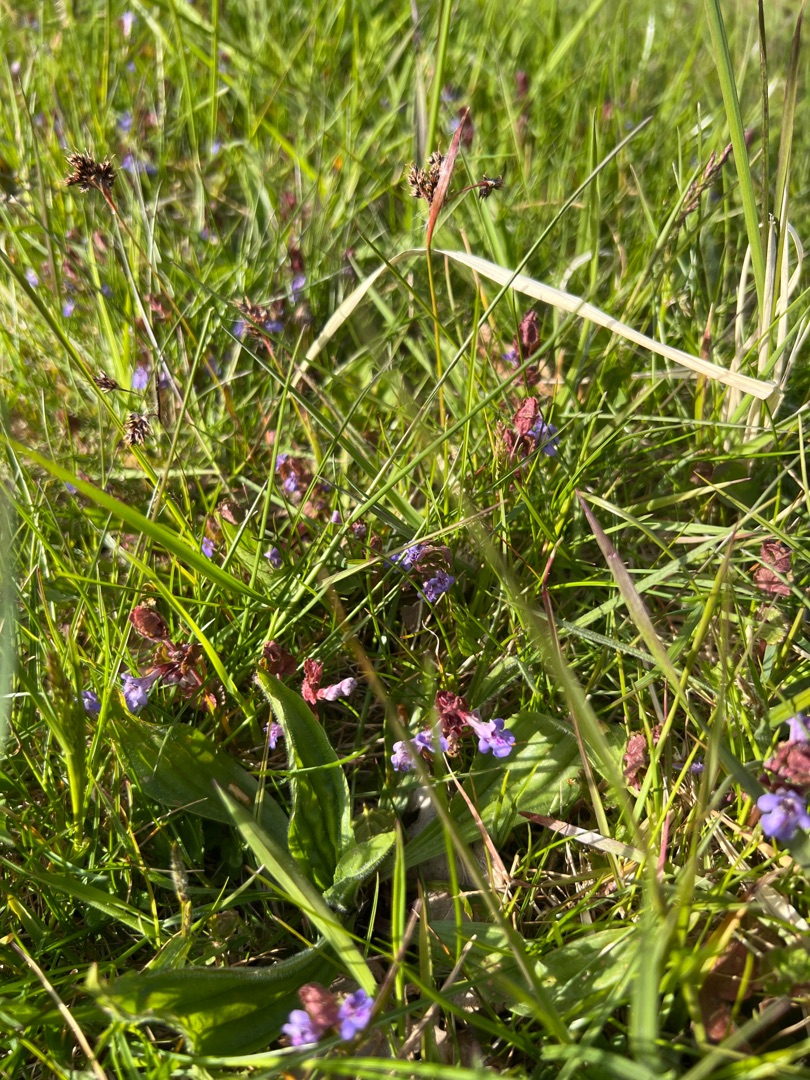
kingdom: Plantae
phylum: Tracheophyta
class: Magnoliopsida
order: Lamiales
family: Lamiaceae
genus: Glechoma
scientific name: Glechoma hederacea
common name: Korsknap
